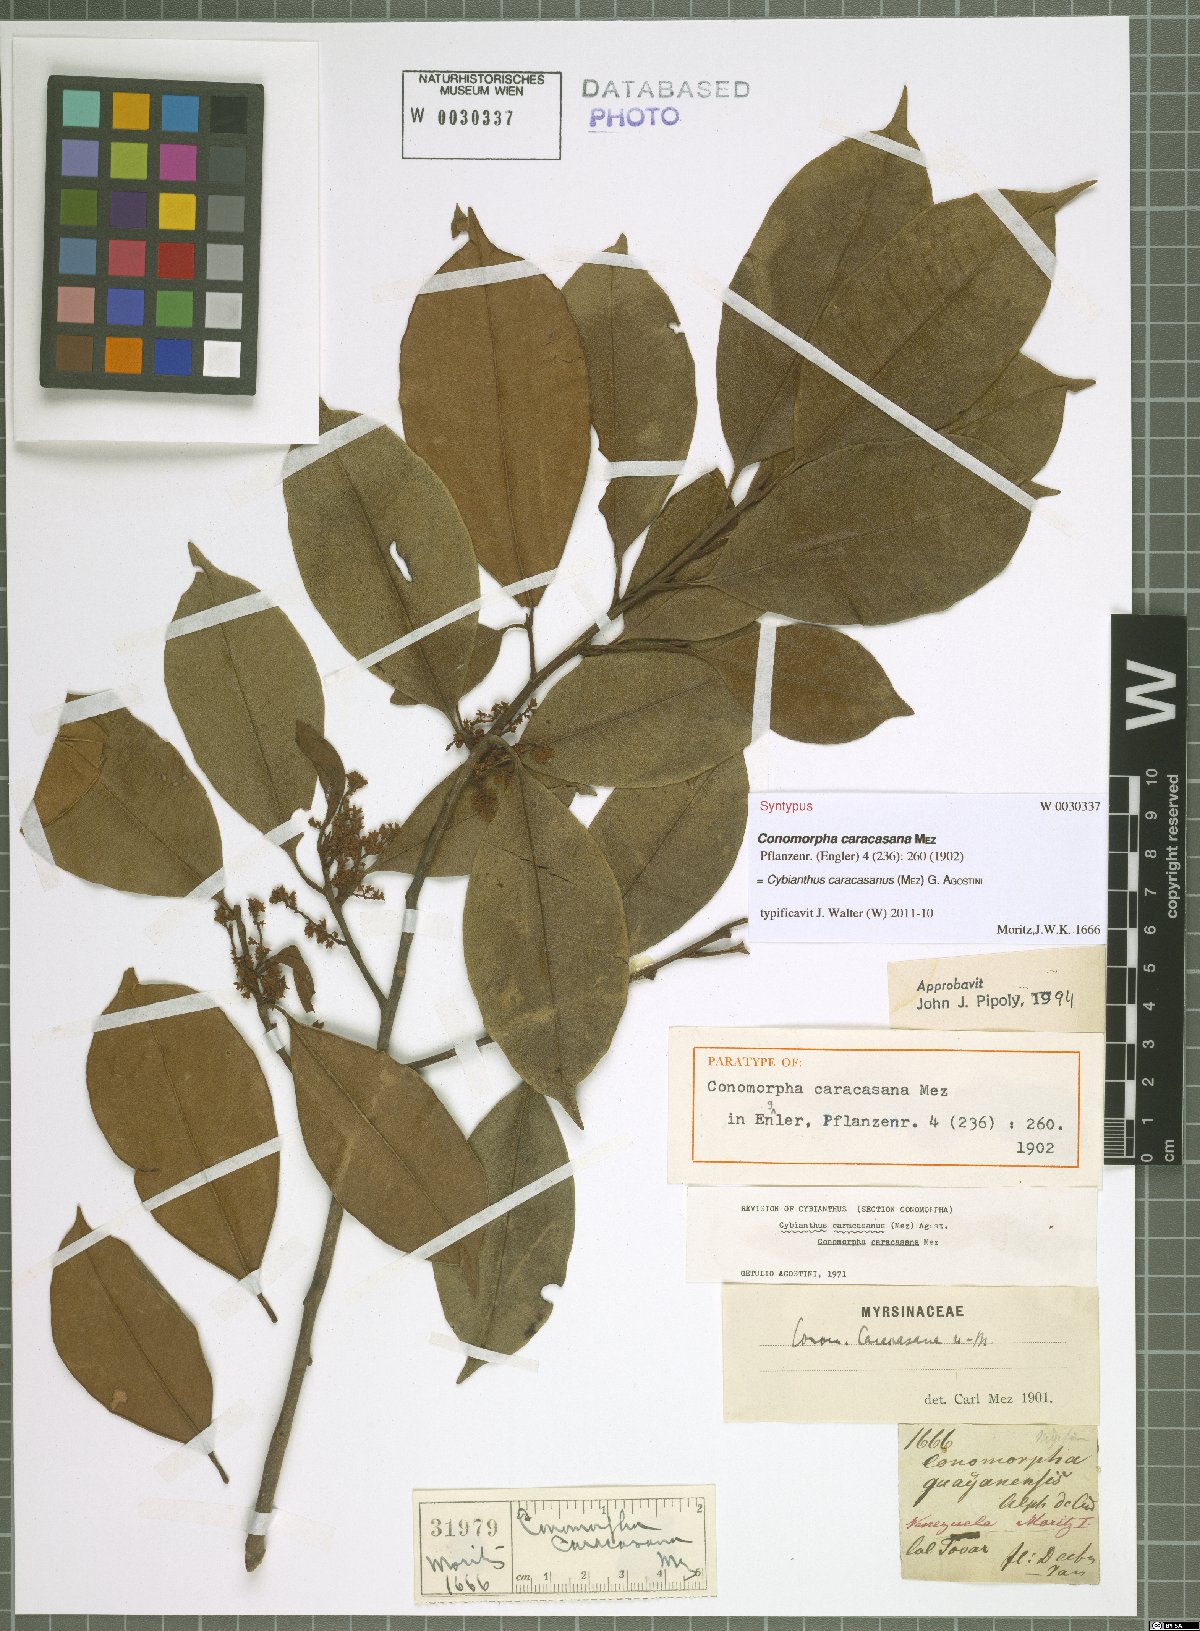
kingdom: Plantae
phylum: Tracheophyta
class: Magnoliopsida
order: Ericales
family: Primulaceae
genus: Cybianthus
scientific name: Cybianthus caracasanus
